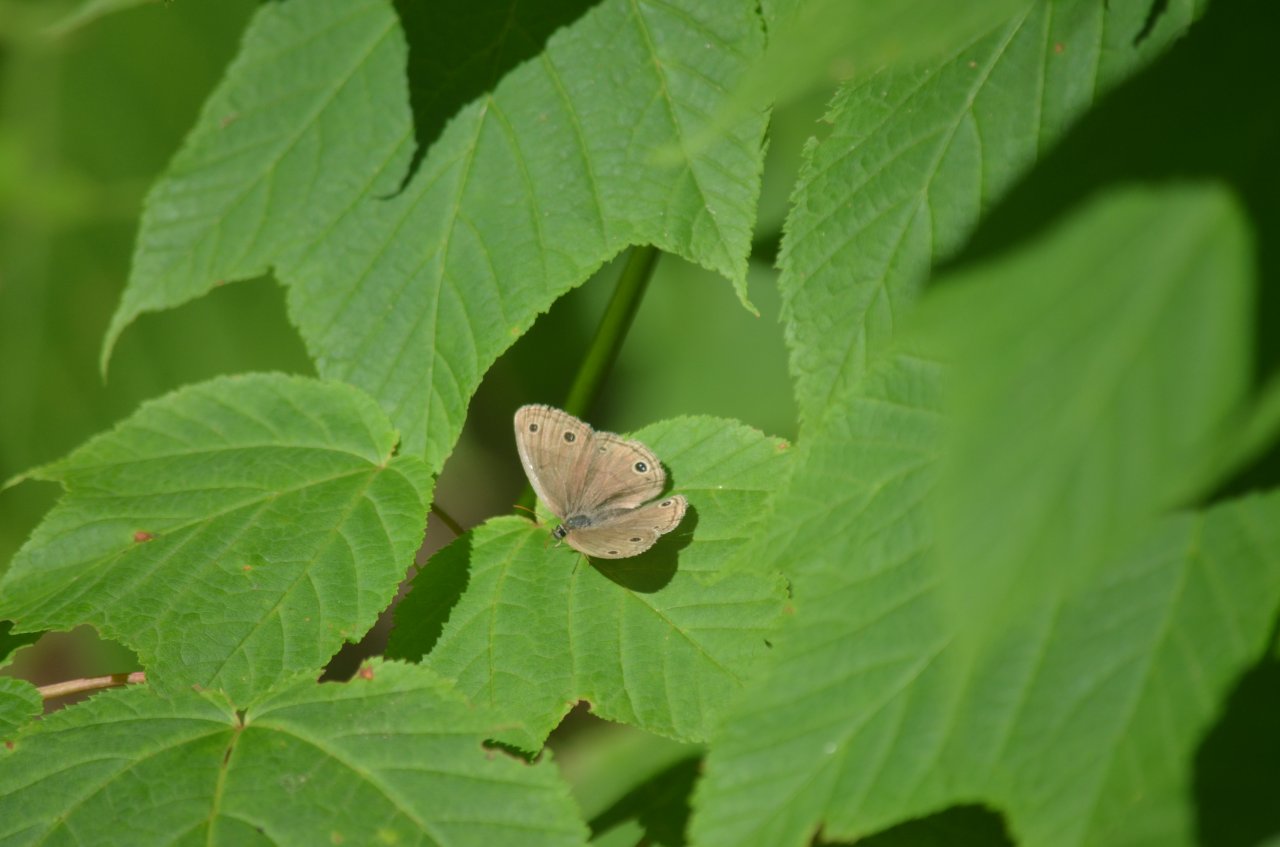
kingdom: Animalia
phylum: Arthropoda
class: Insecta
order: Lepidoptera
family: Nymphalidae
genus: Euptychia
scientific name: Euptychia cymela
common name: Little Wood Satyr
